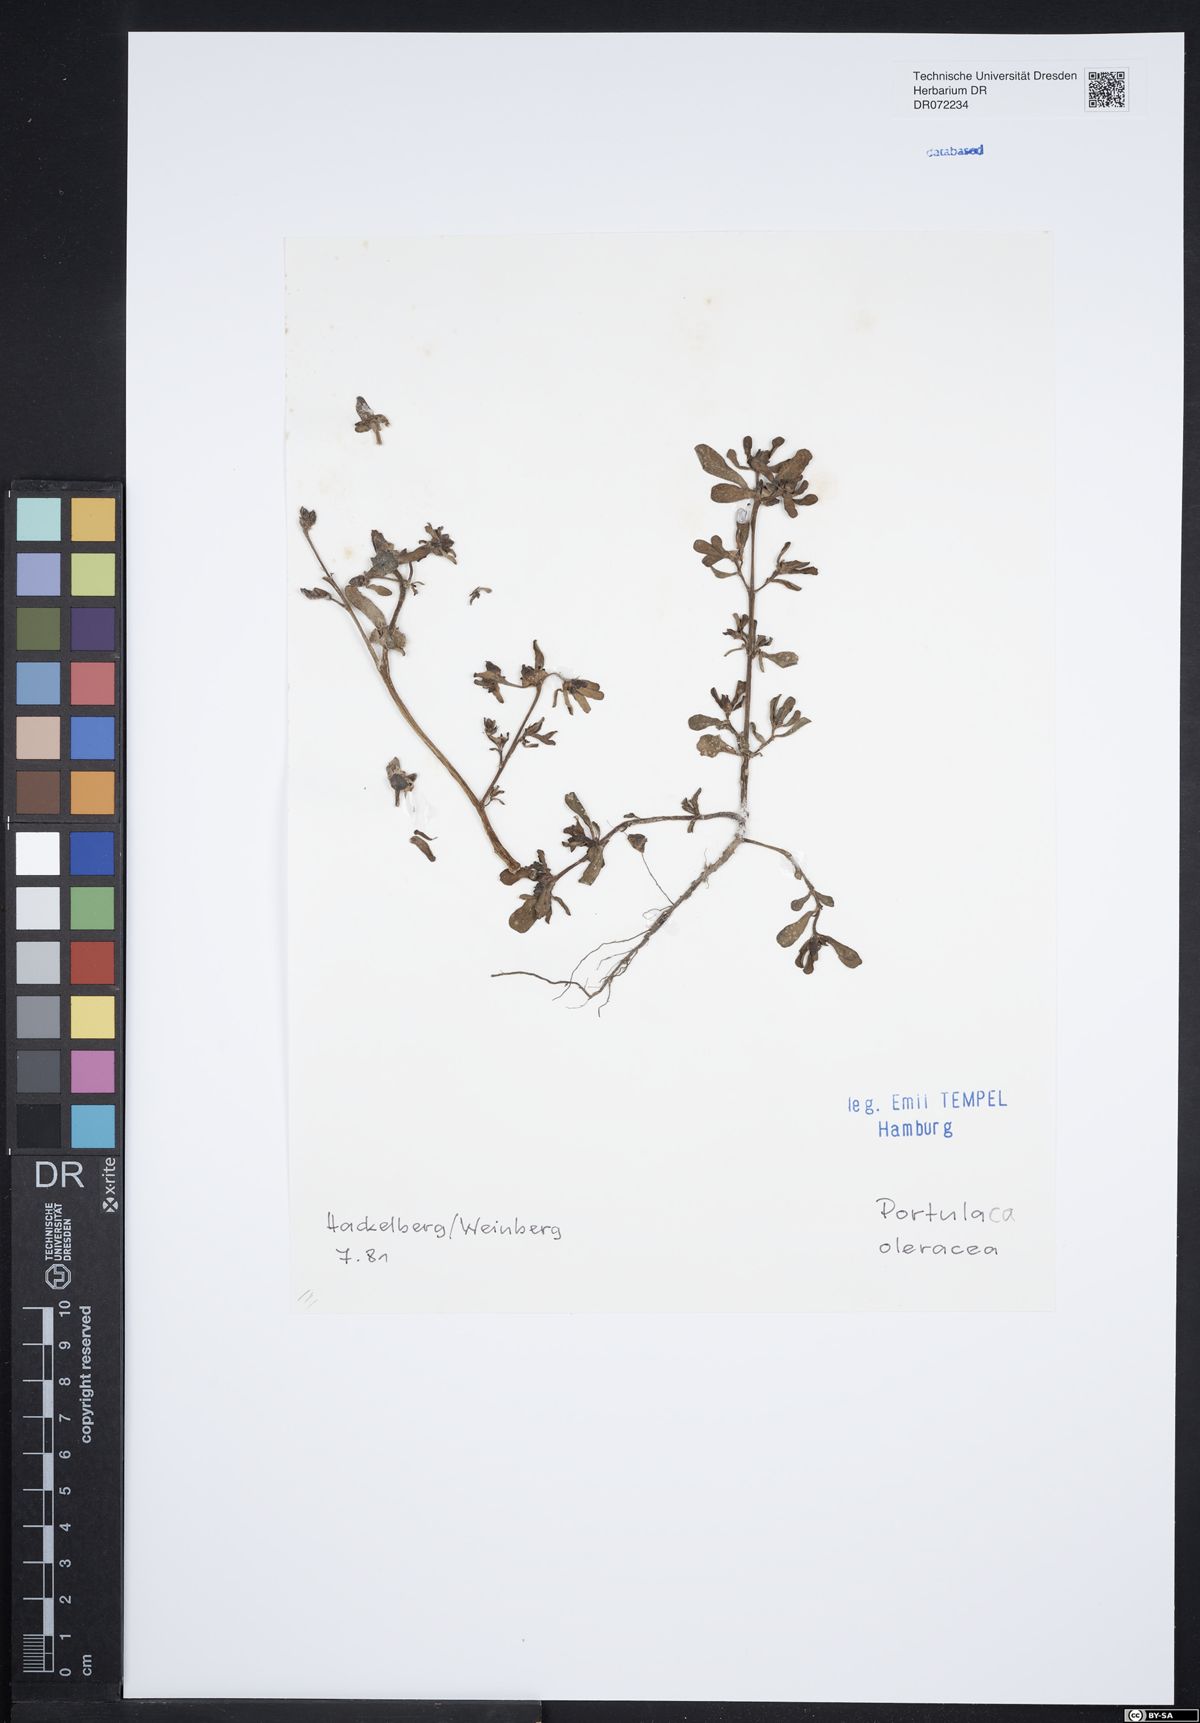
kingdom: Plantae
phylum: Tracheophyta
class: Magnoliopsida
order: Caryophyllales
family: Portulacaceae
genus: Portulaca
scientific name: Portulaca oleracea
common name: Common purslane
